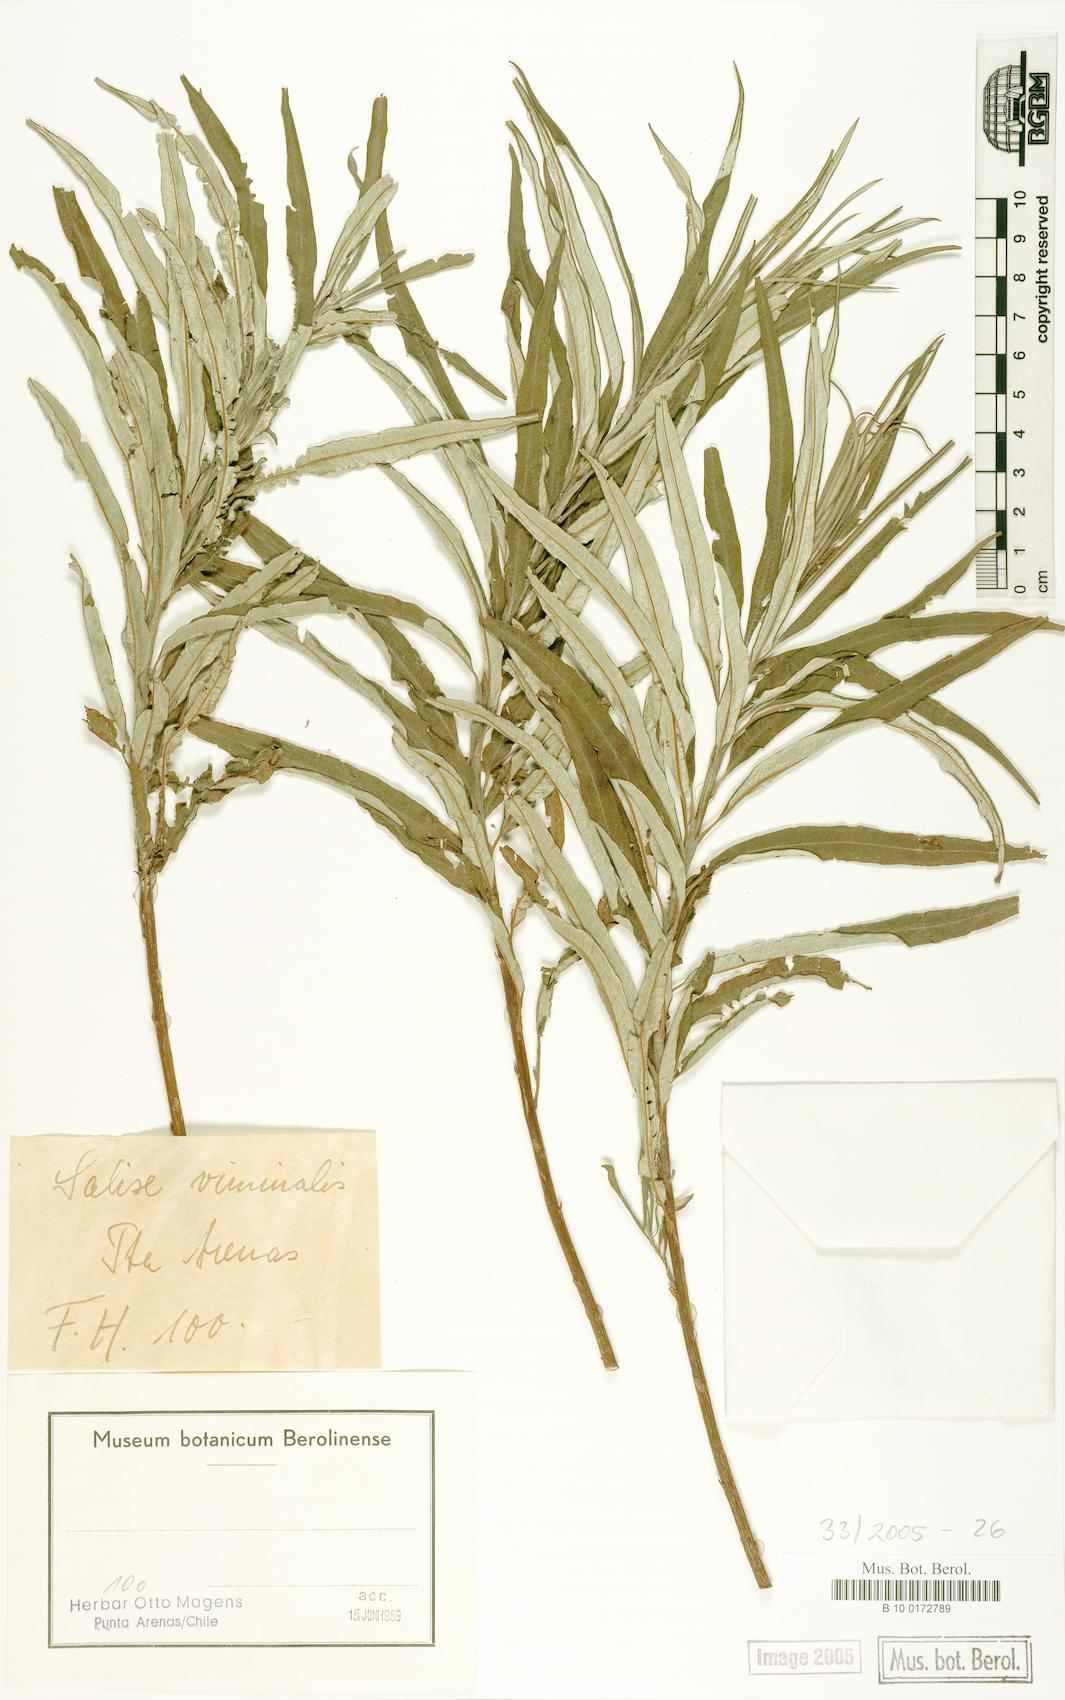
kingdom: Plantae
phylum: Tracheophyta
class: Magnoliopsida
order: Malpighiales
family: Salicaceae
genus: Salix
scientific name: Salix viminalis
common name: Osier
